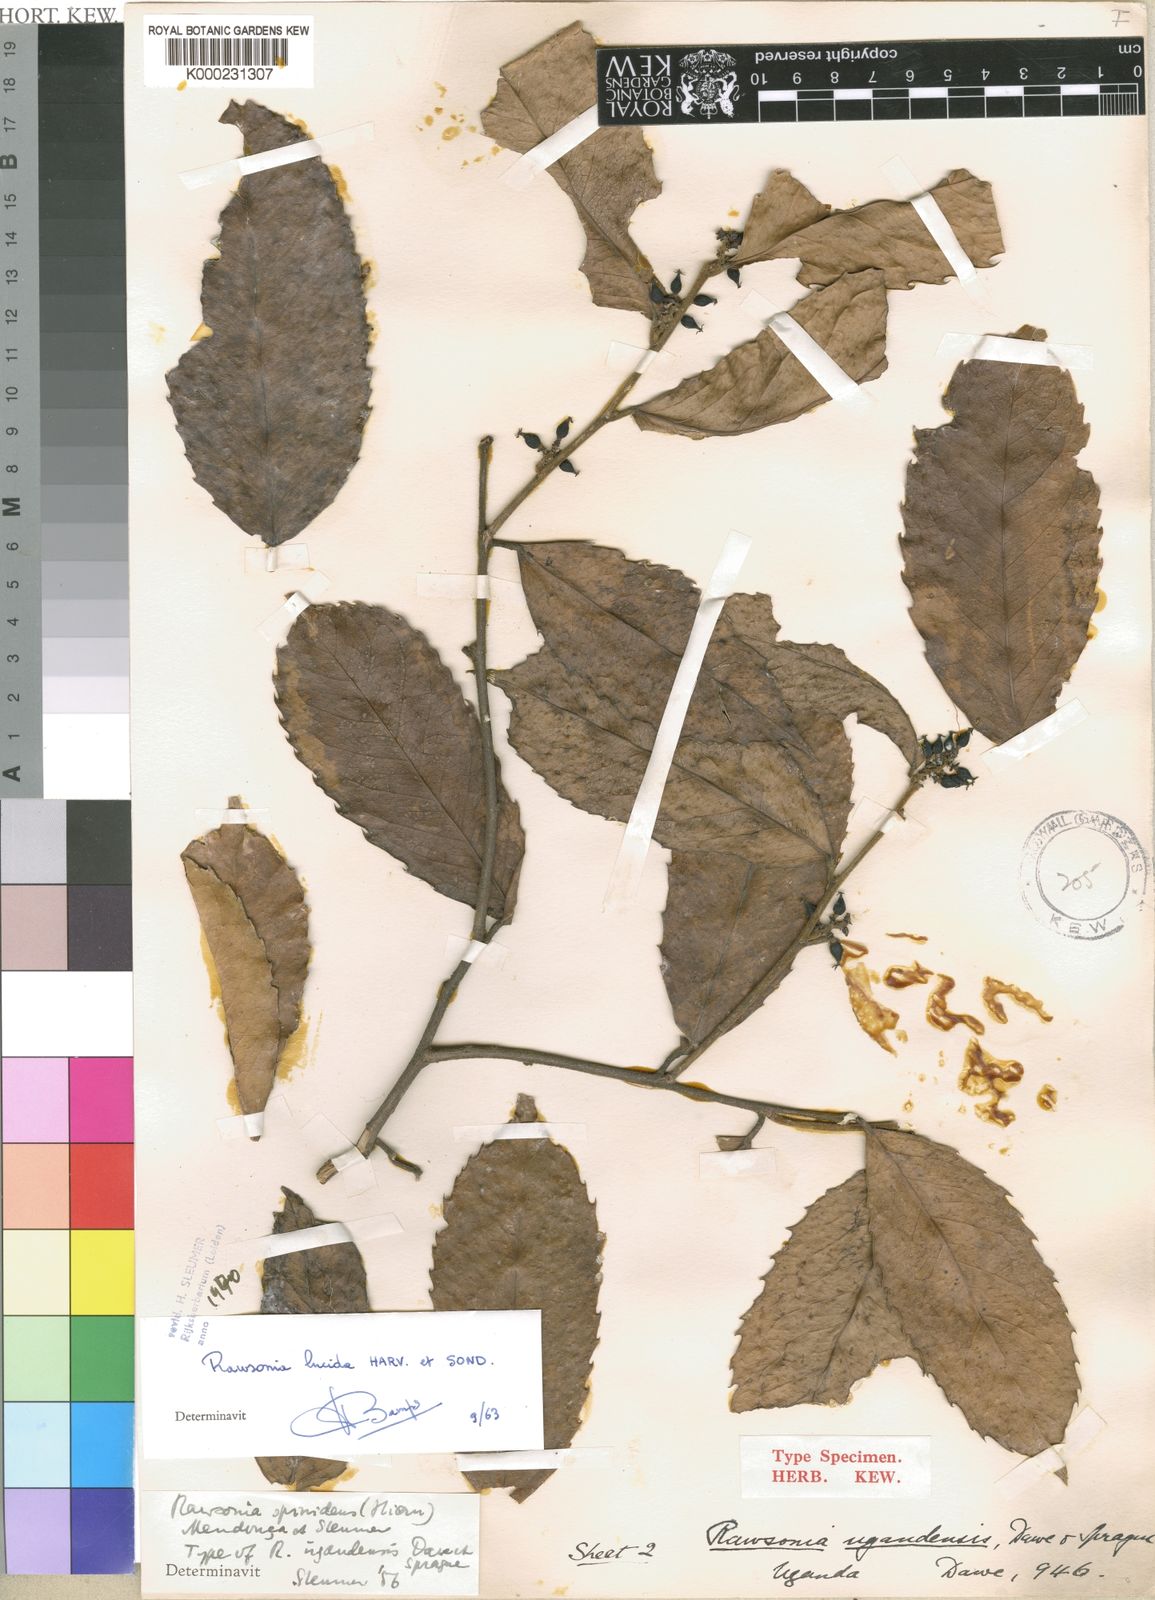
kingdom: Plantae
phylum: Tracheophyta
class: Magnoliopsida
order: Malpighiales
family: Achariaceae
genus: Rawsonia
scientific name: Rawsonia lucida
